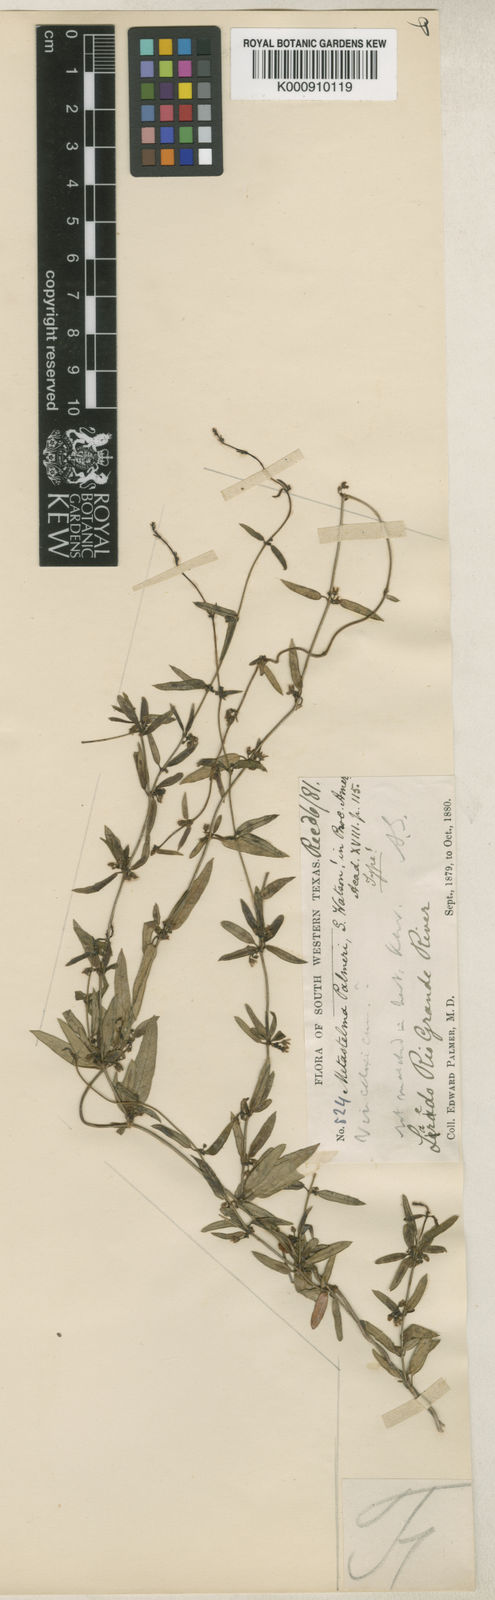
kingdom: Plantae
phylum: Tracheophyta
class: Magnoliopsida
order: Gentianales
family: Apocynaceae
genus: Metastelma
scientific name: Metastelma palmeri
